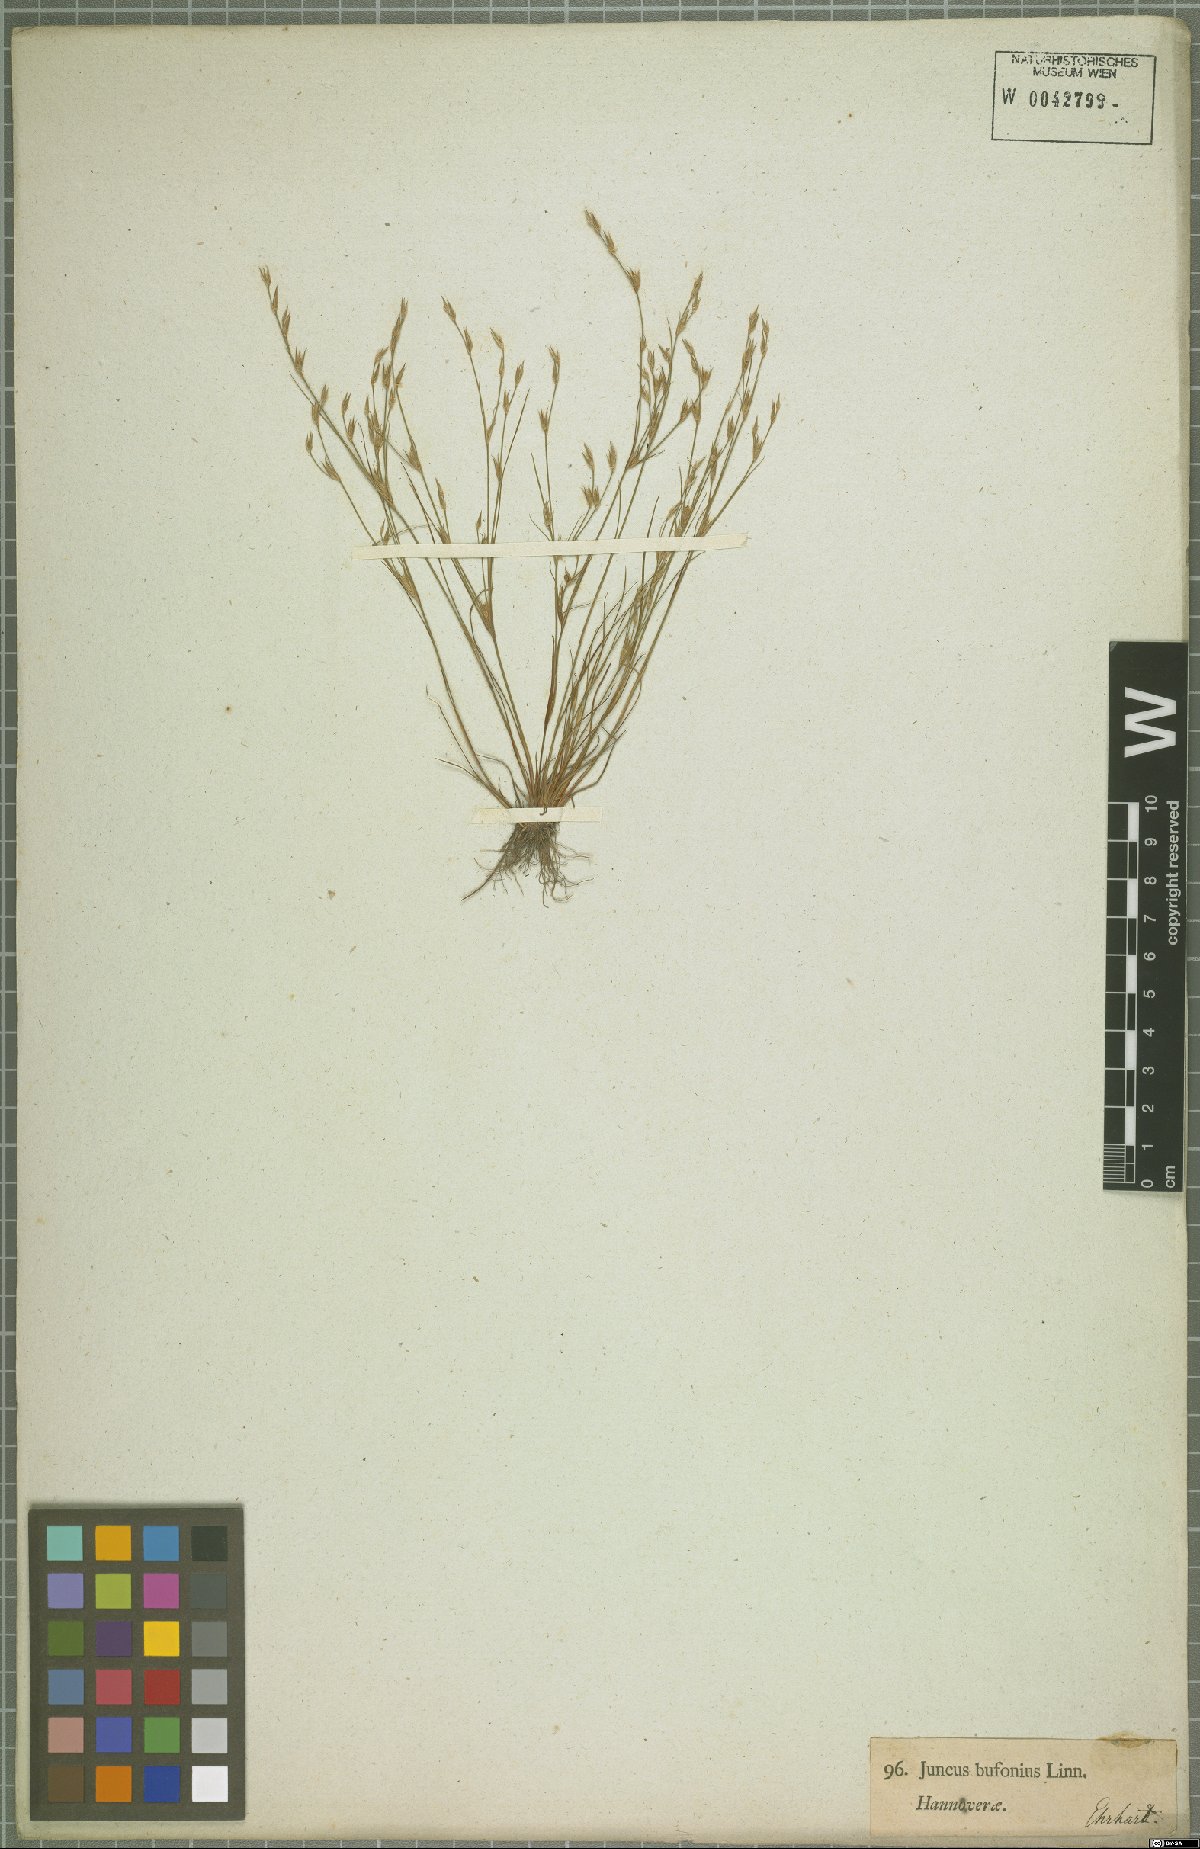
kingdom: Plantae
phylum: Tracheophyta
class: Liliopsida
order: Poales
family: Juncaceae
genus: Juncus
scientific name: Juncus bufonius
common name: Toad rush
